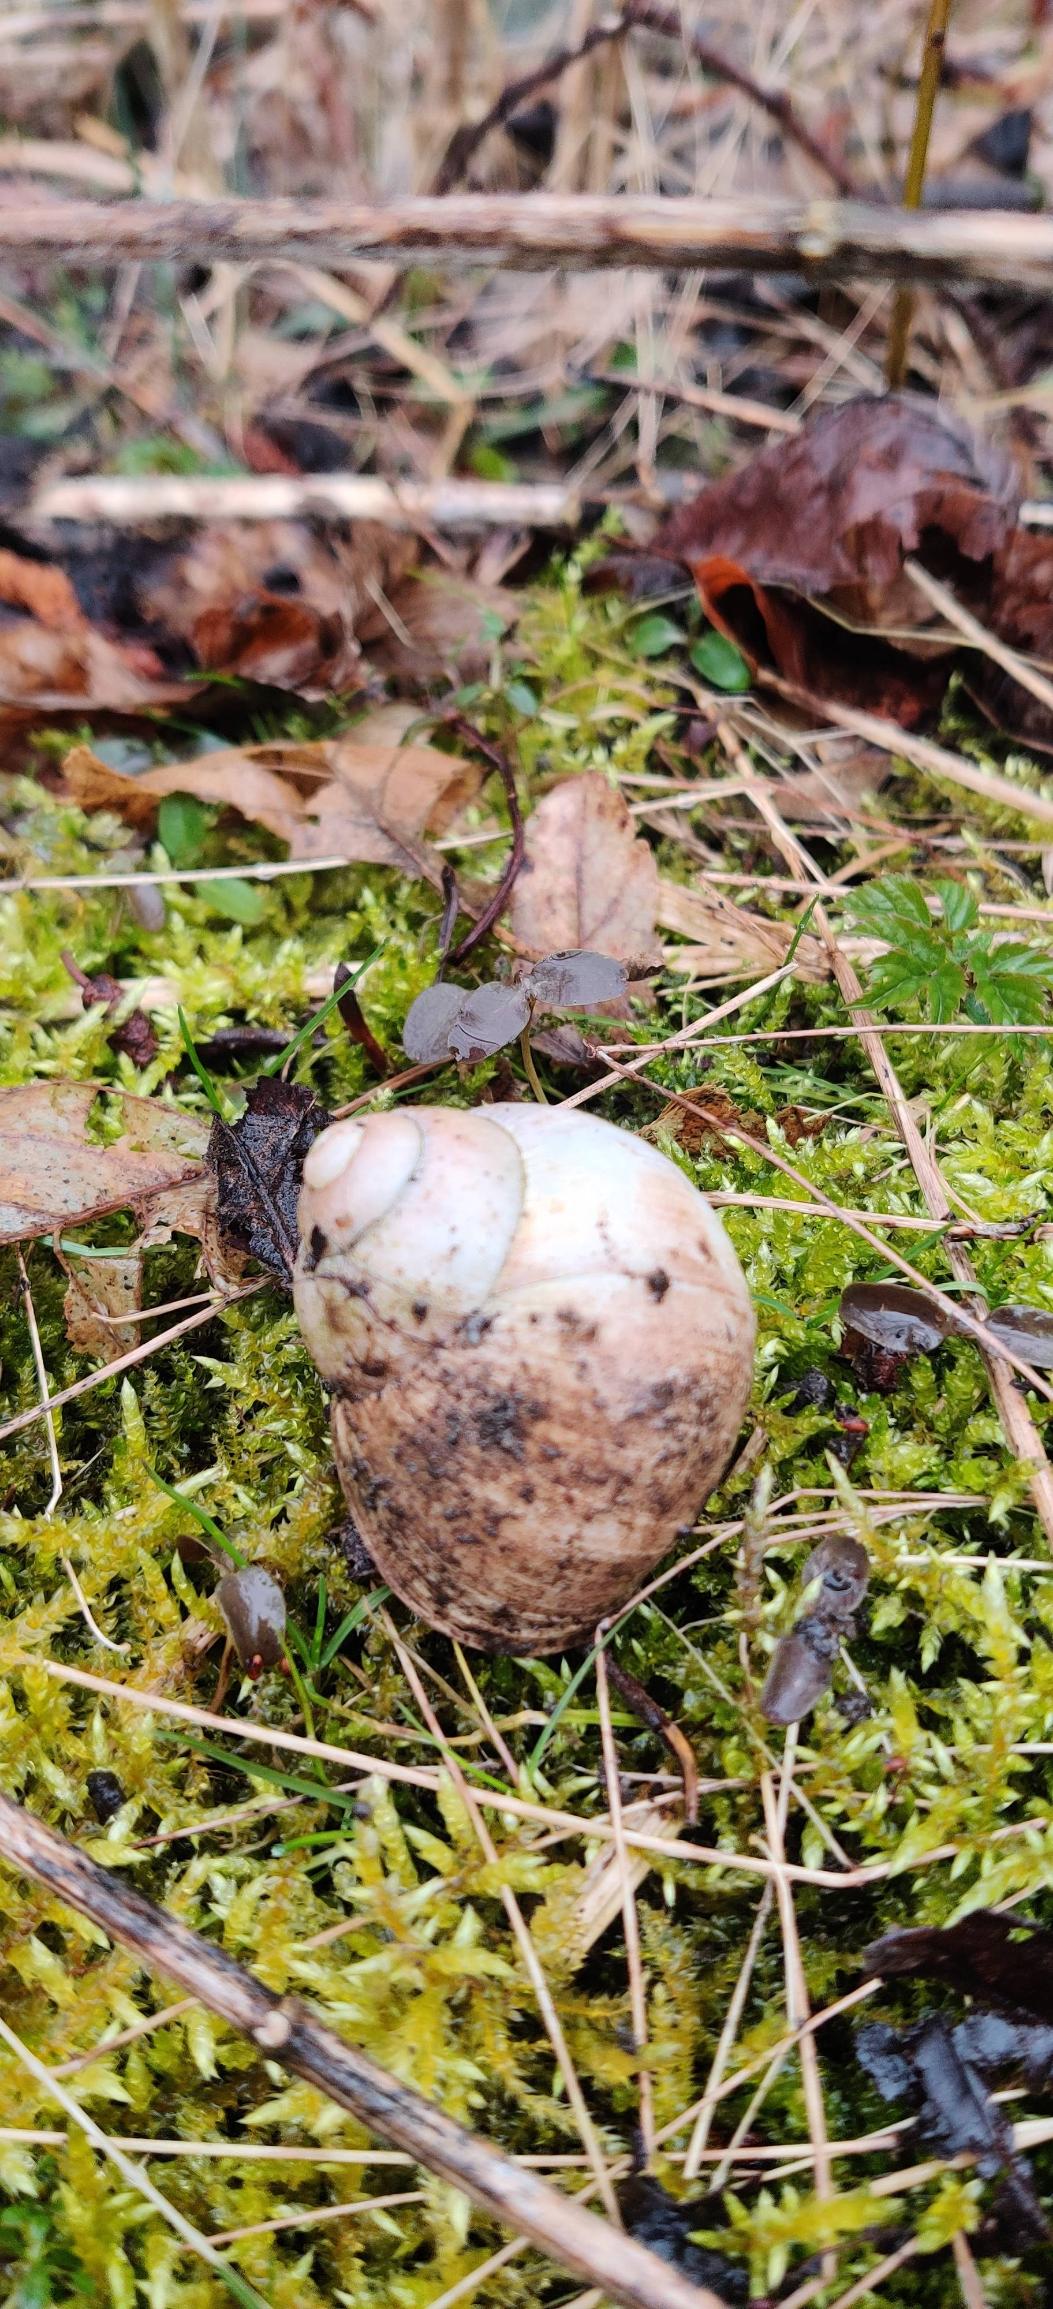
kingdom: Animalia
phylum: Mollusca
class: Gastropoda
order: Stylommatophora
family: Helicidae
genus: Helix
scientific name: Helix pomatia
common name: Vinbjergsnegl
